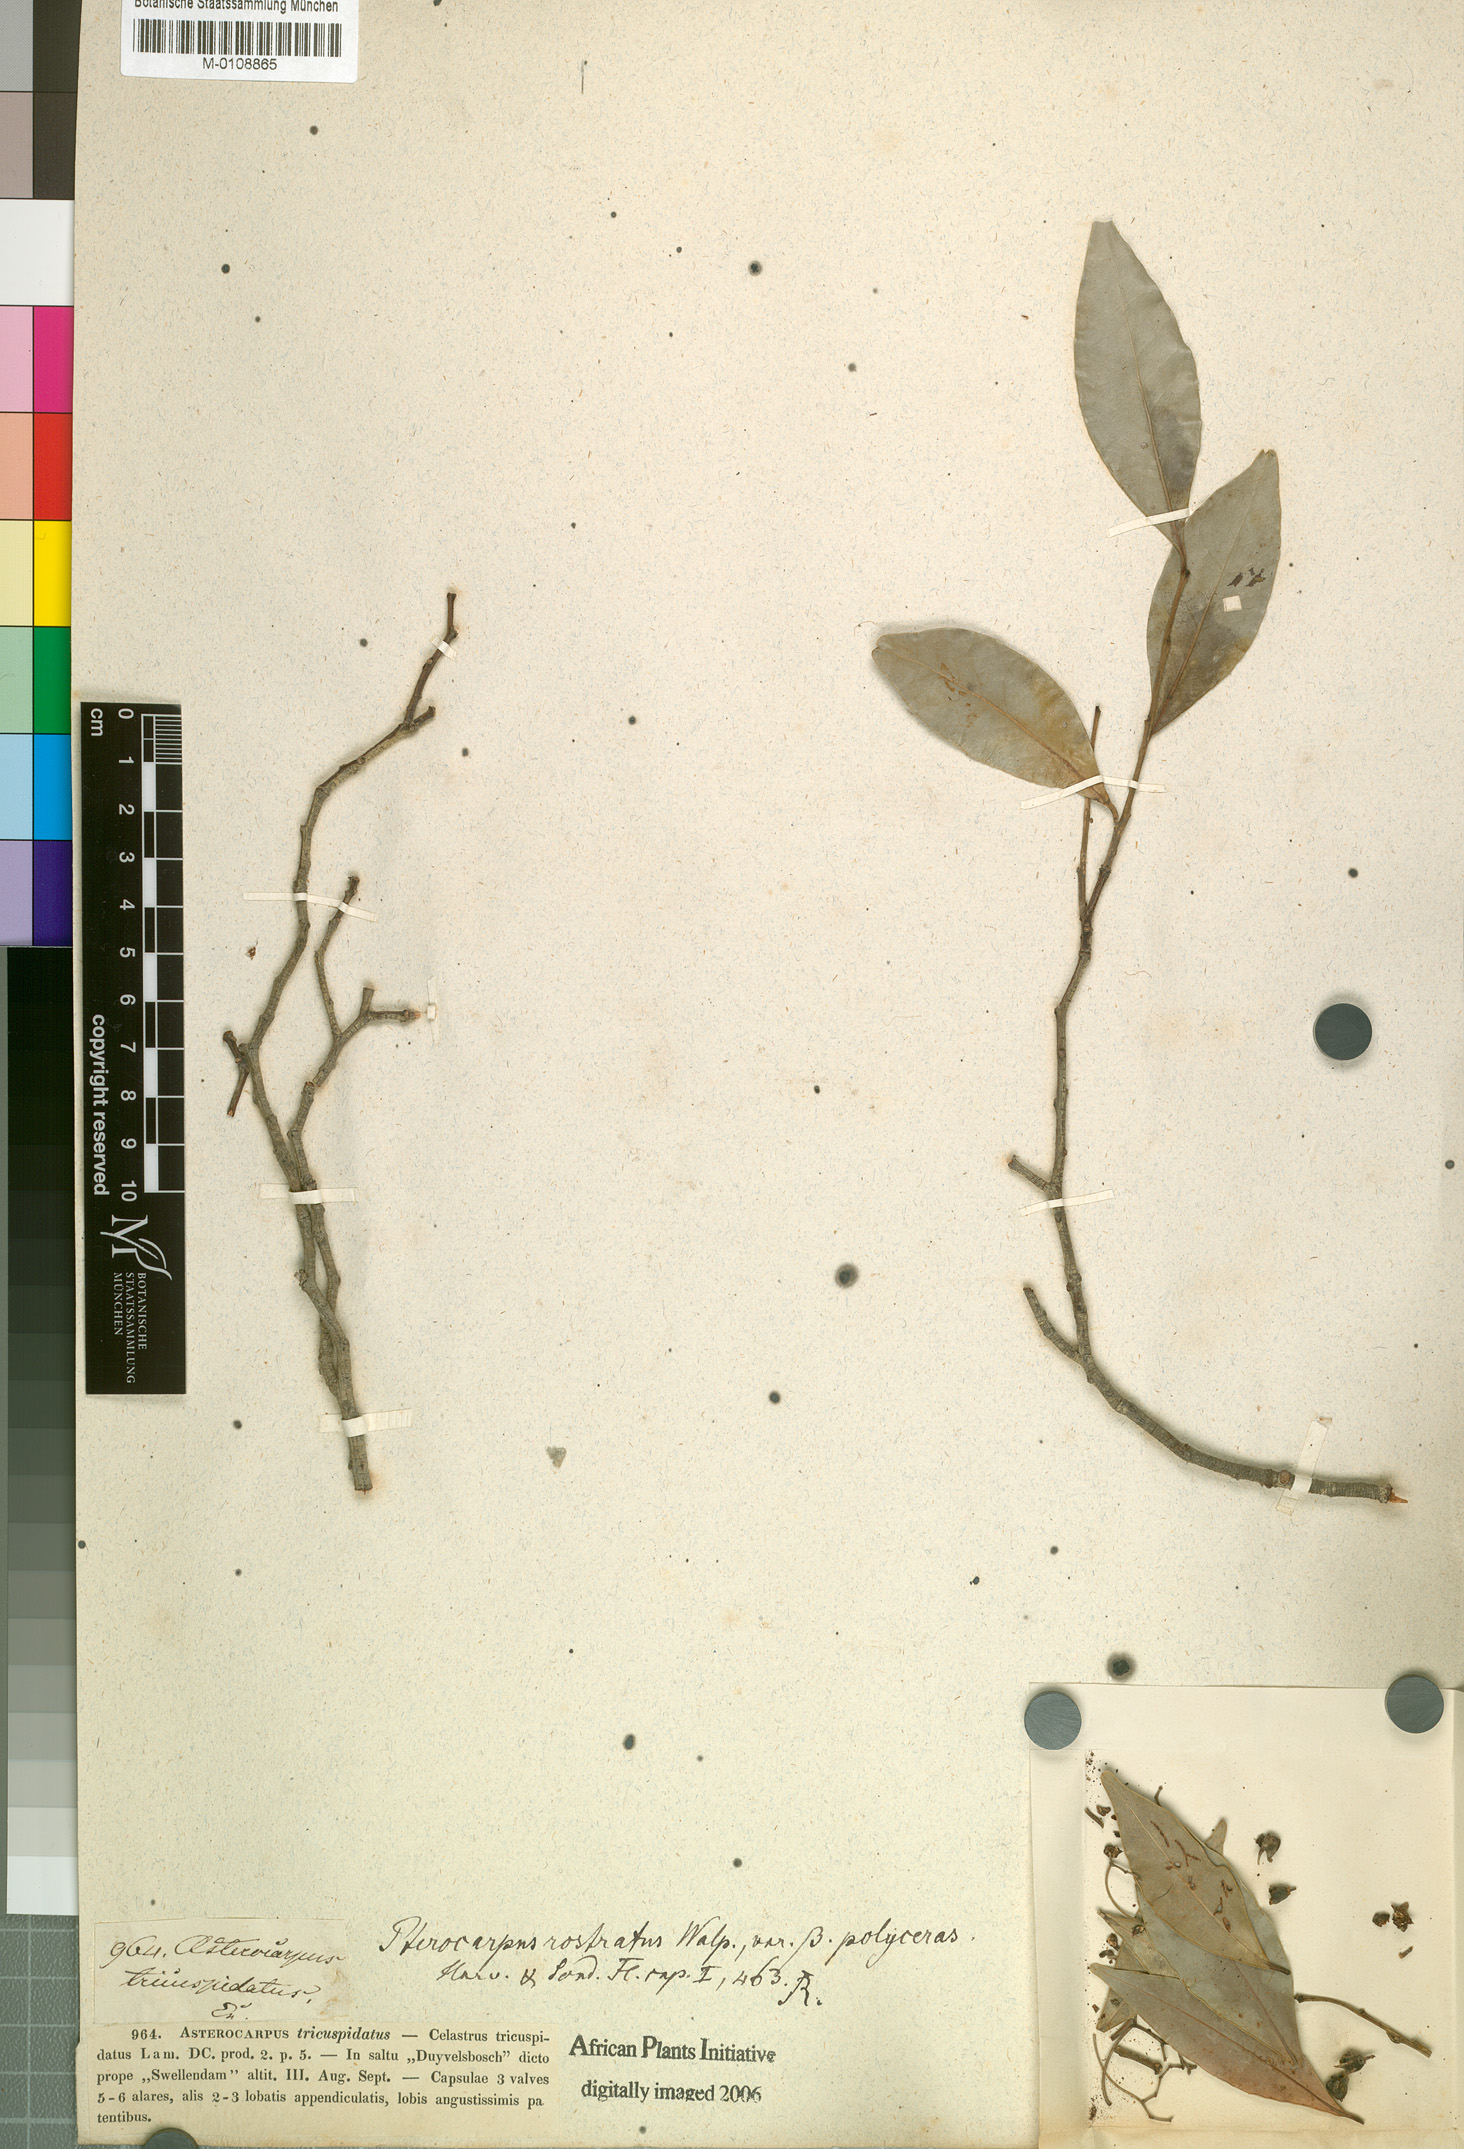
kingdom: Plantae
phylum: Tracheophyta
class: Magnoliopsida
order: Celastrales
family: Celastraceae
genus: Pterocelastrus
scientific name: Pterocelastrus rostratus
